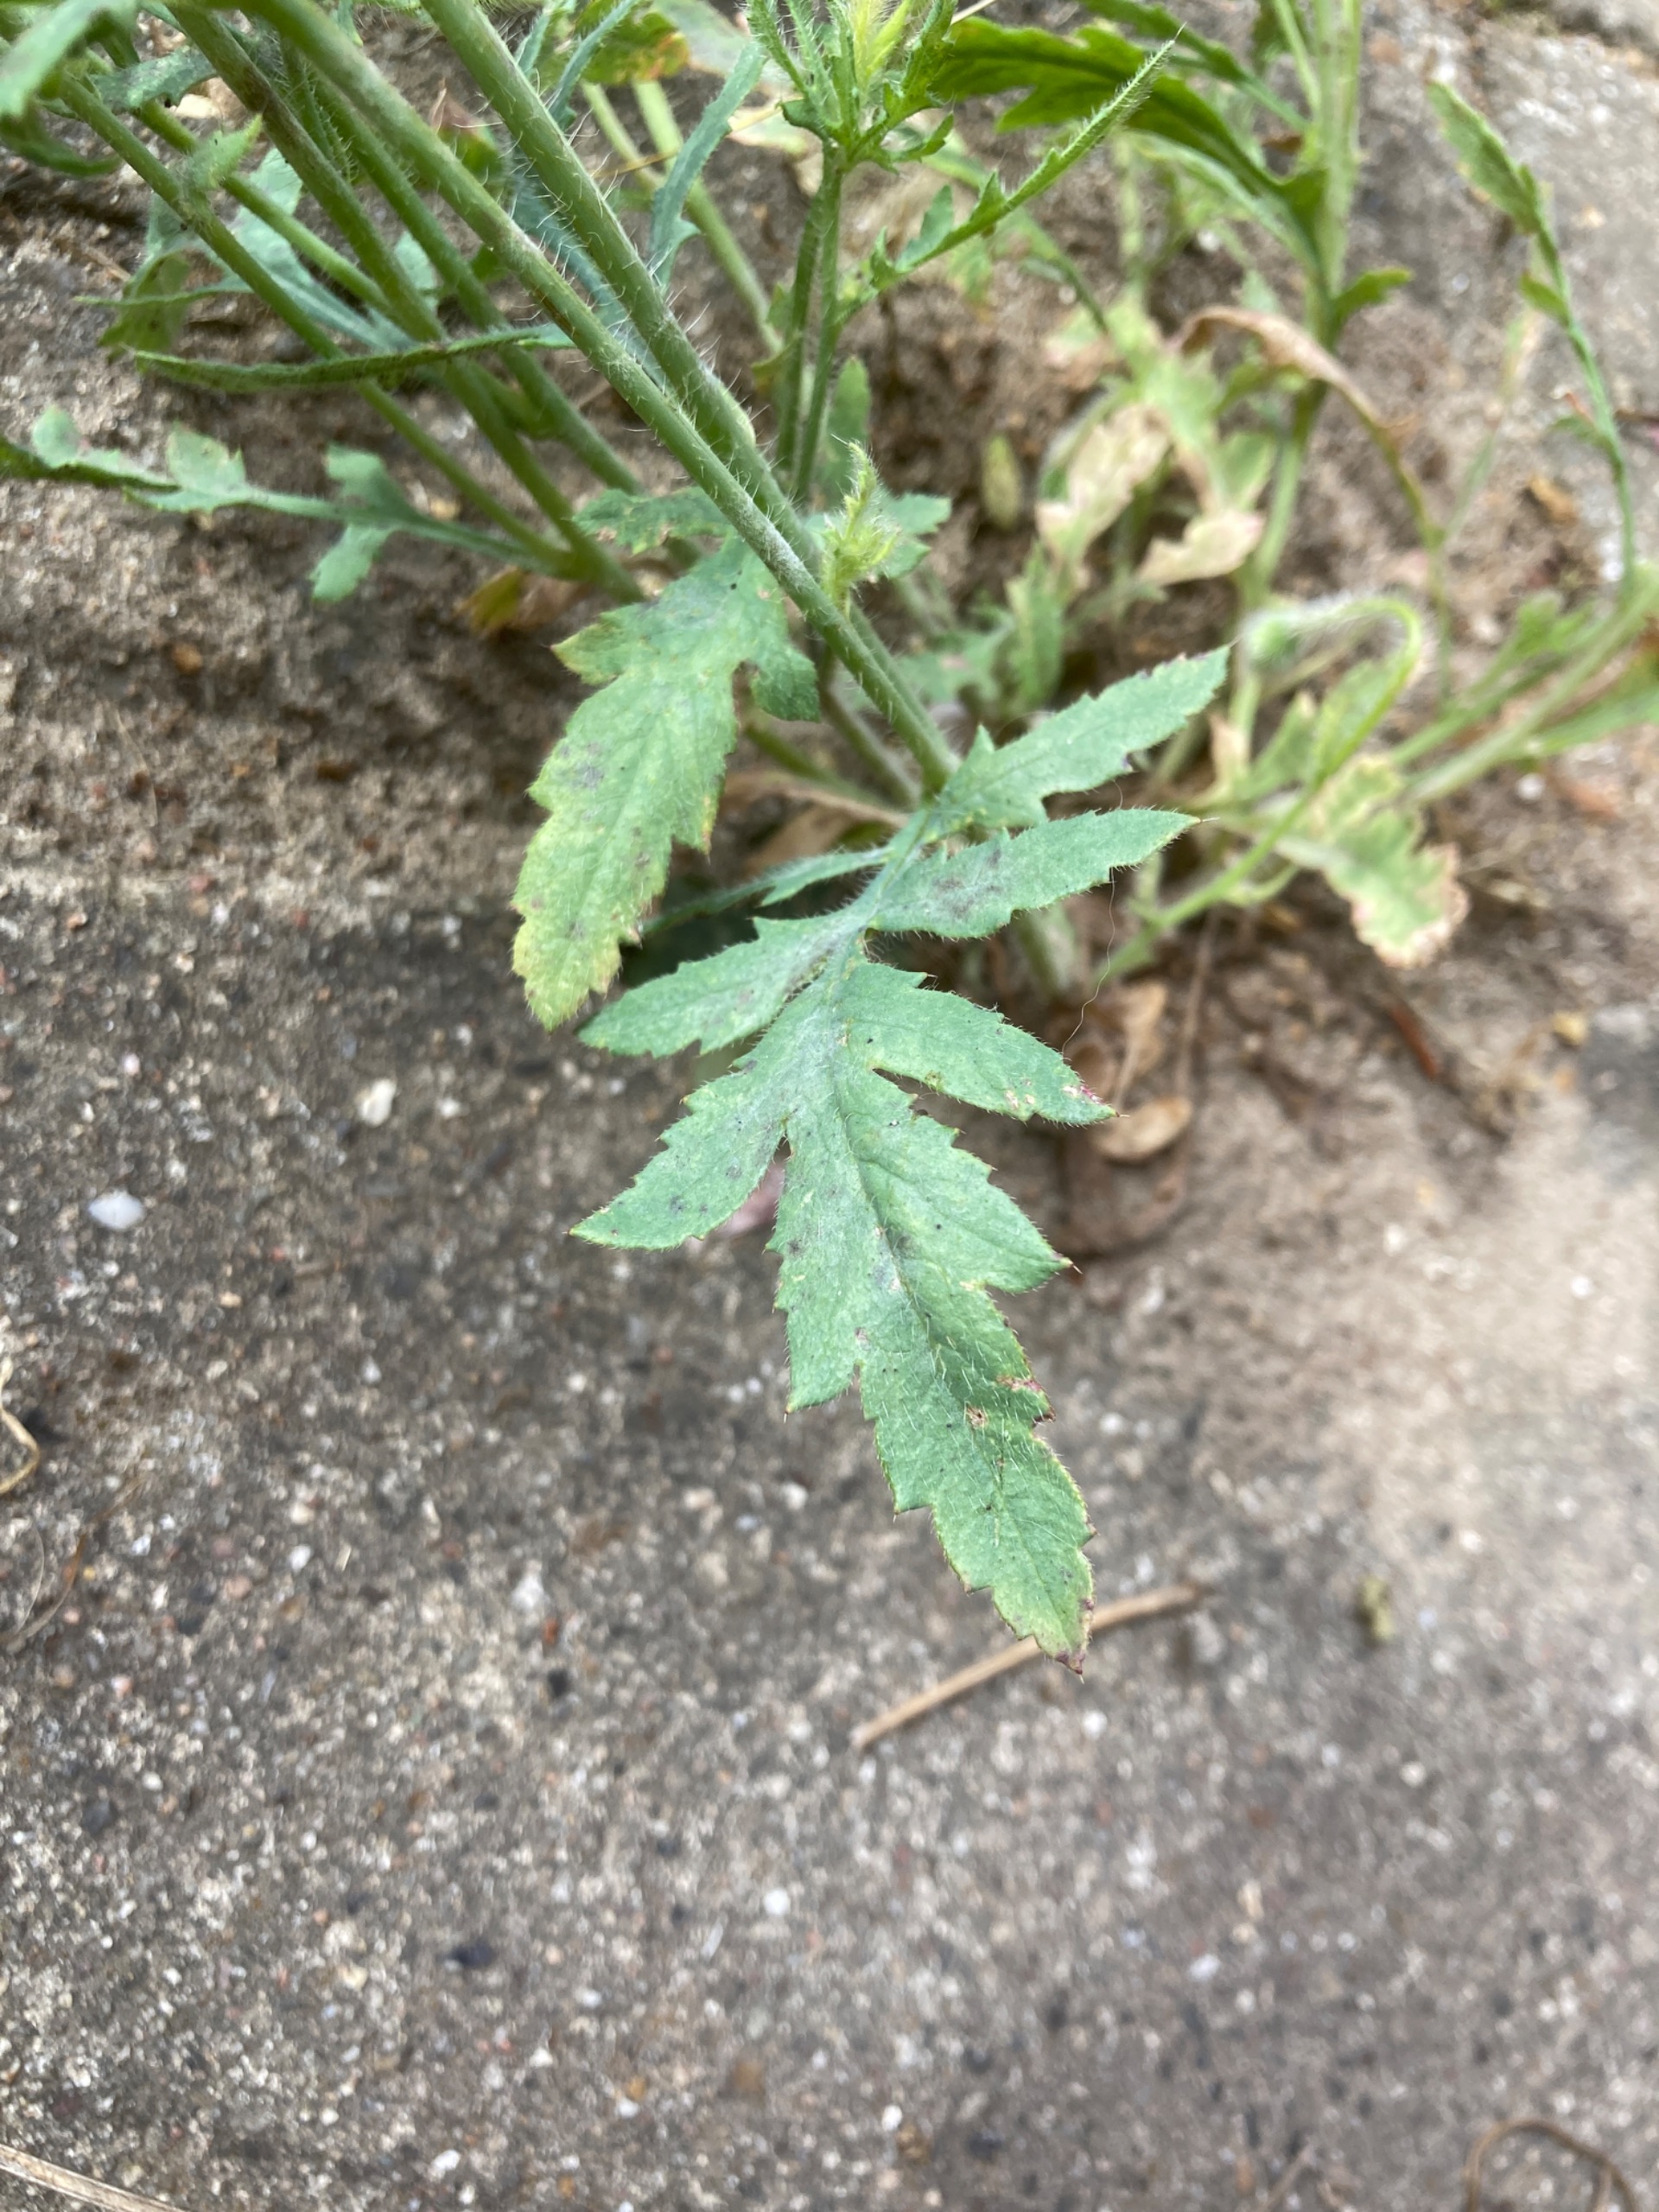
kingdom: Plantae
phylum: Tracheophyta
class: Magnoliopsida
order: Ranunculales
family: Papaveraceae
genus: Papaver
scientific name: Papaver rhoeas
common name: Korn-valmue
